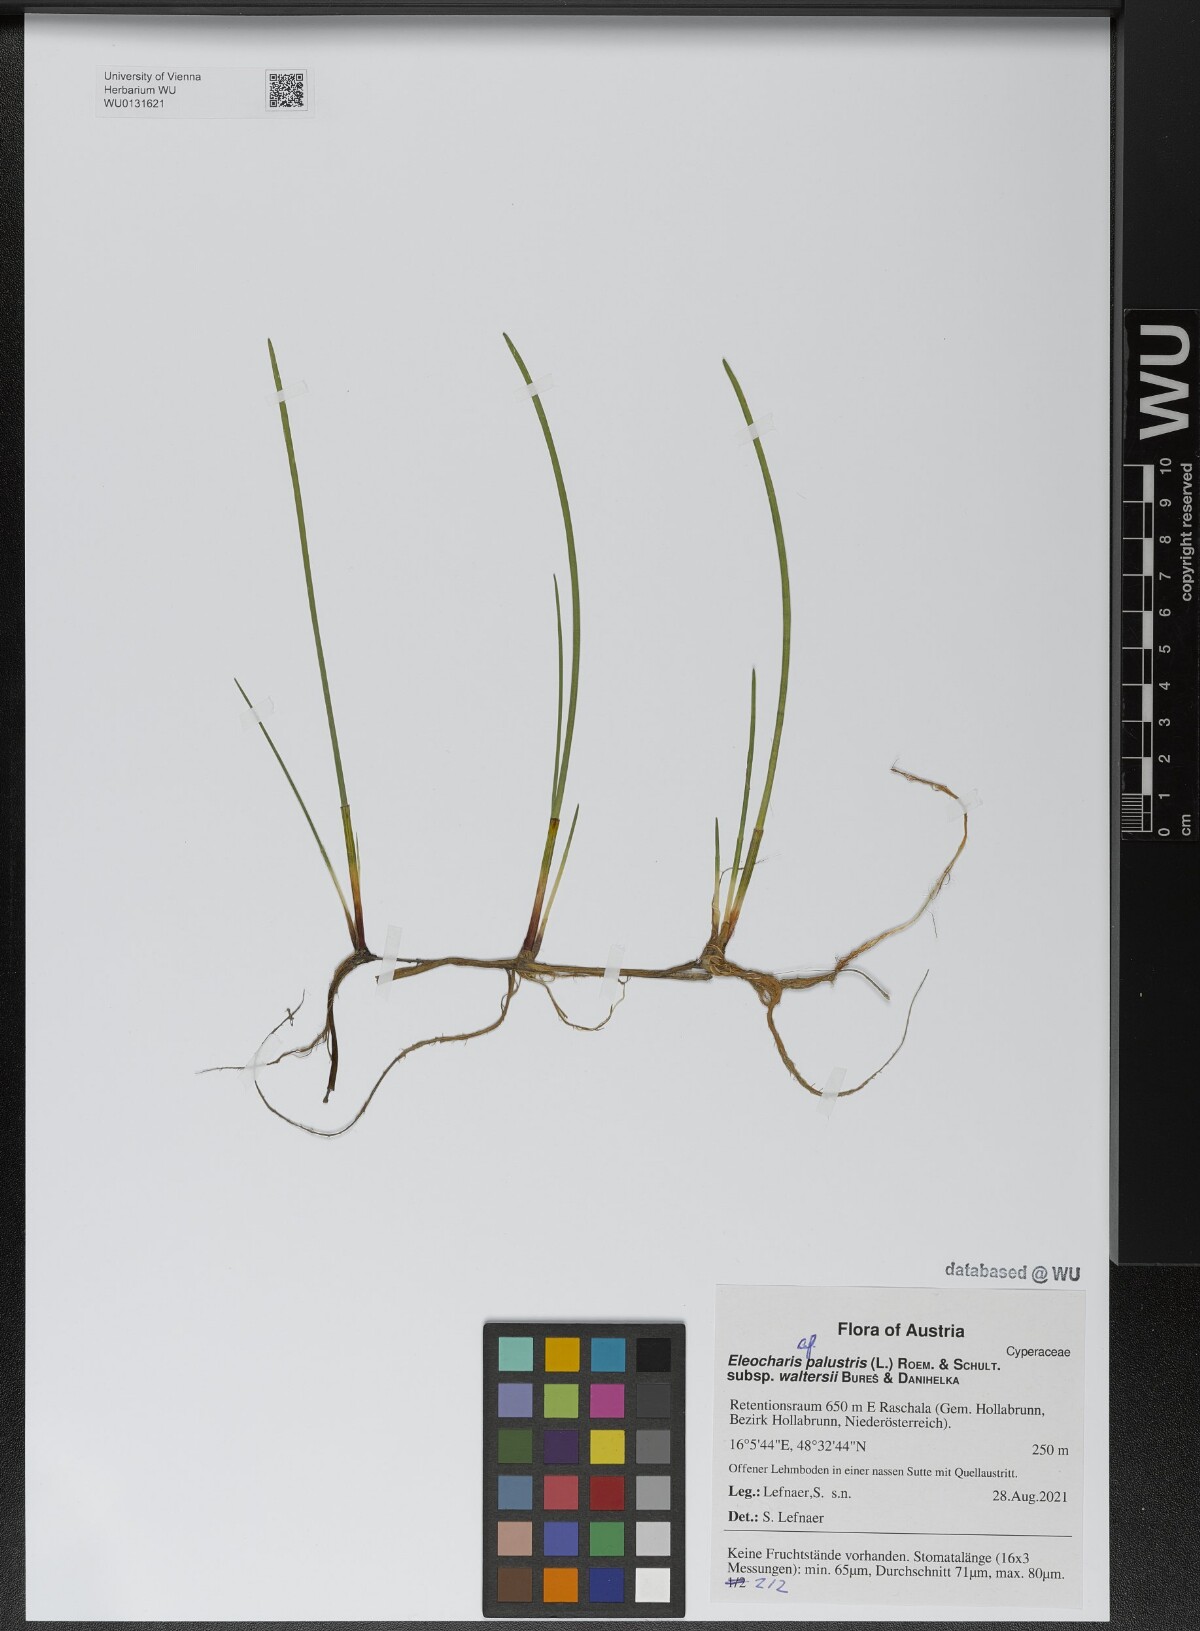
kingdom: Plantae
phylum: Tracheophyta
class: Liliopsida
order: Poales
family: Cyperaceae
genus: Eleocharis
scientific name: Eleocharis palustris
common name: Common spike-rush
